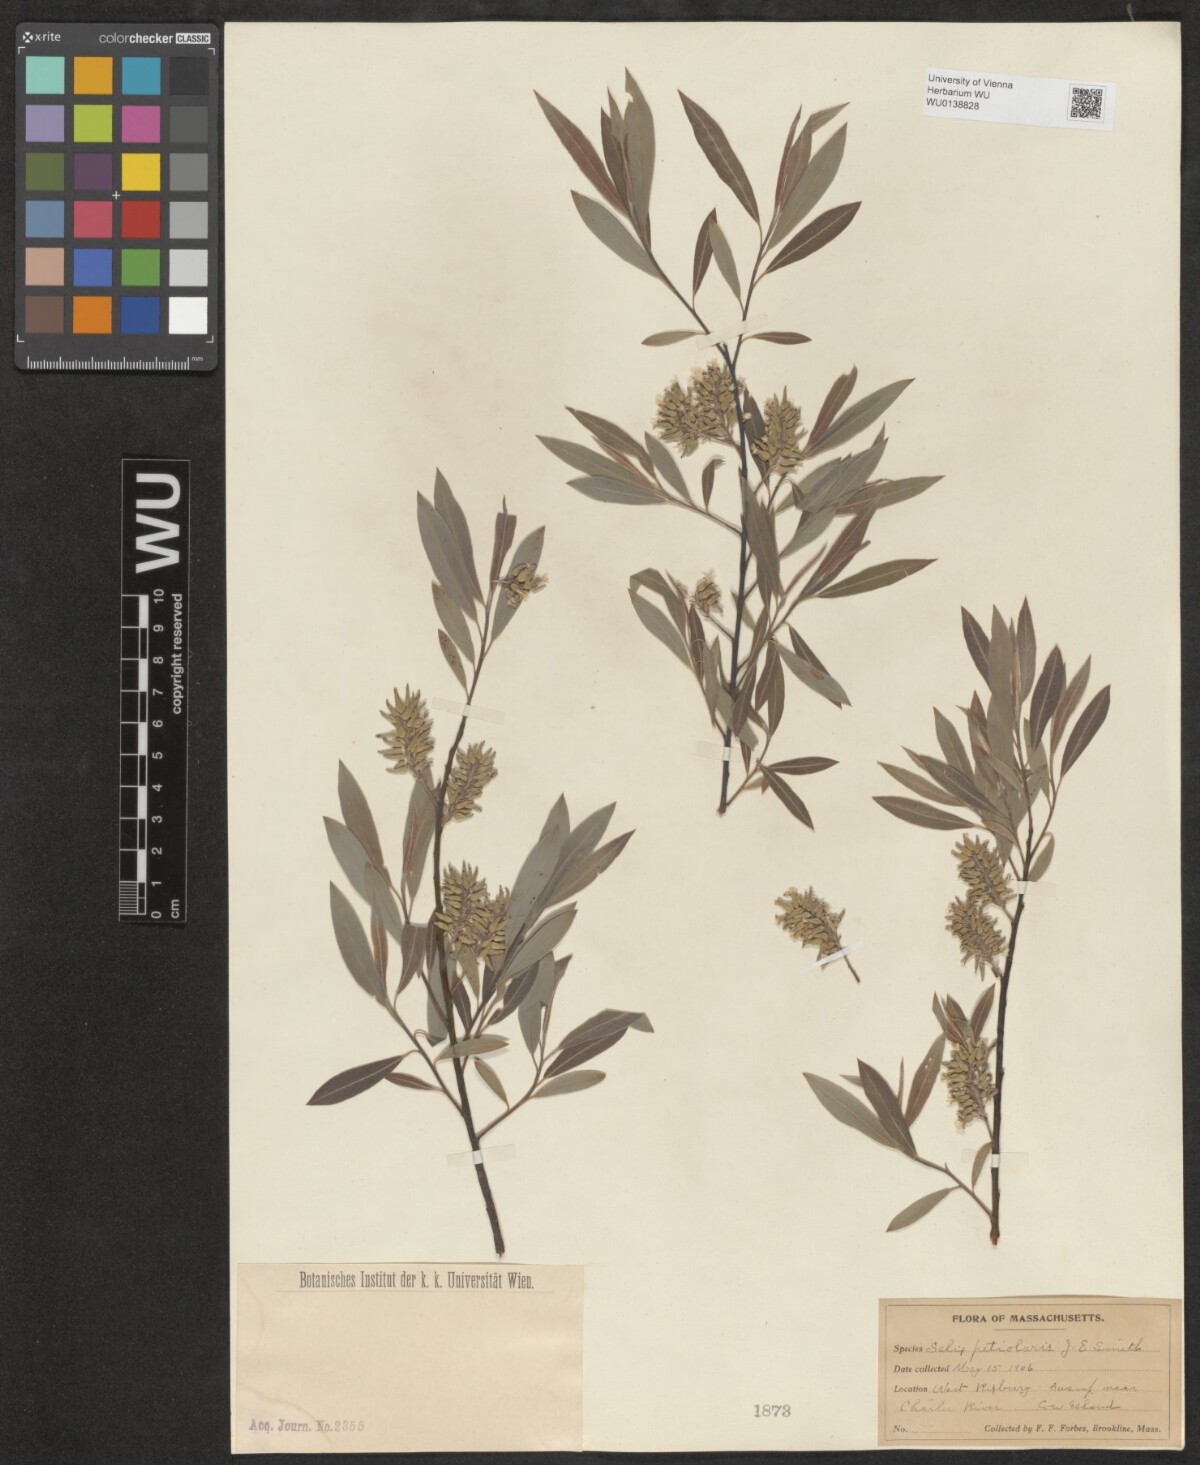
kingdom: Plantae
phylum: Tracheophyta
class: Magnoliopsida
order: Malpighiales
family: Salicaceae
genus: Salix
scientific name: Salix petiolaris
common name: Slender willow
